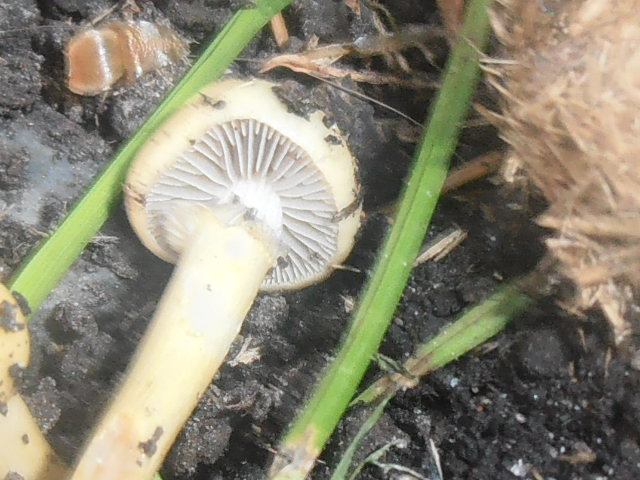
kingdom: Fungi
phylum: Basidiomycota
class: Agaricomycetes
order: Agaricales
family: Strophariaceae
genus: Protostropharia
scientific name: Protostropharia semiglobata
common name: halvkugleformet bredblad
